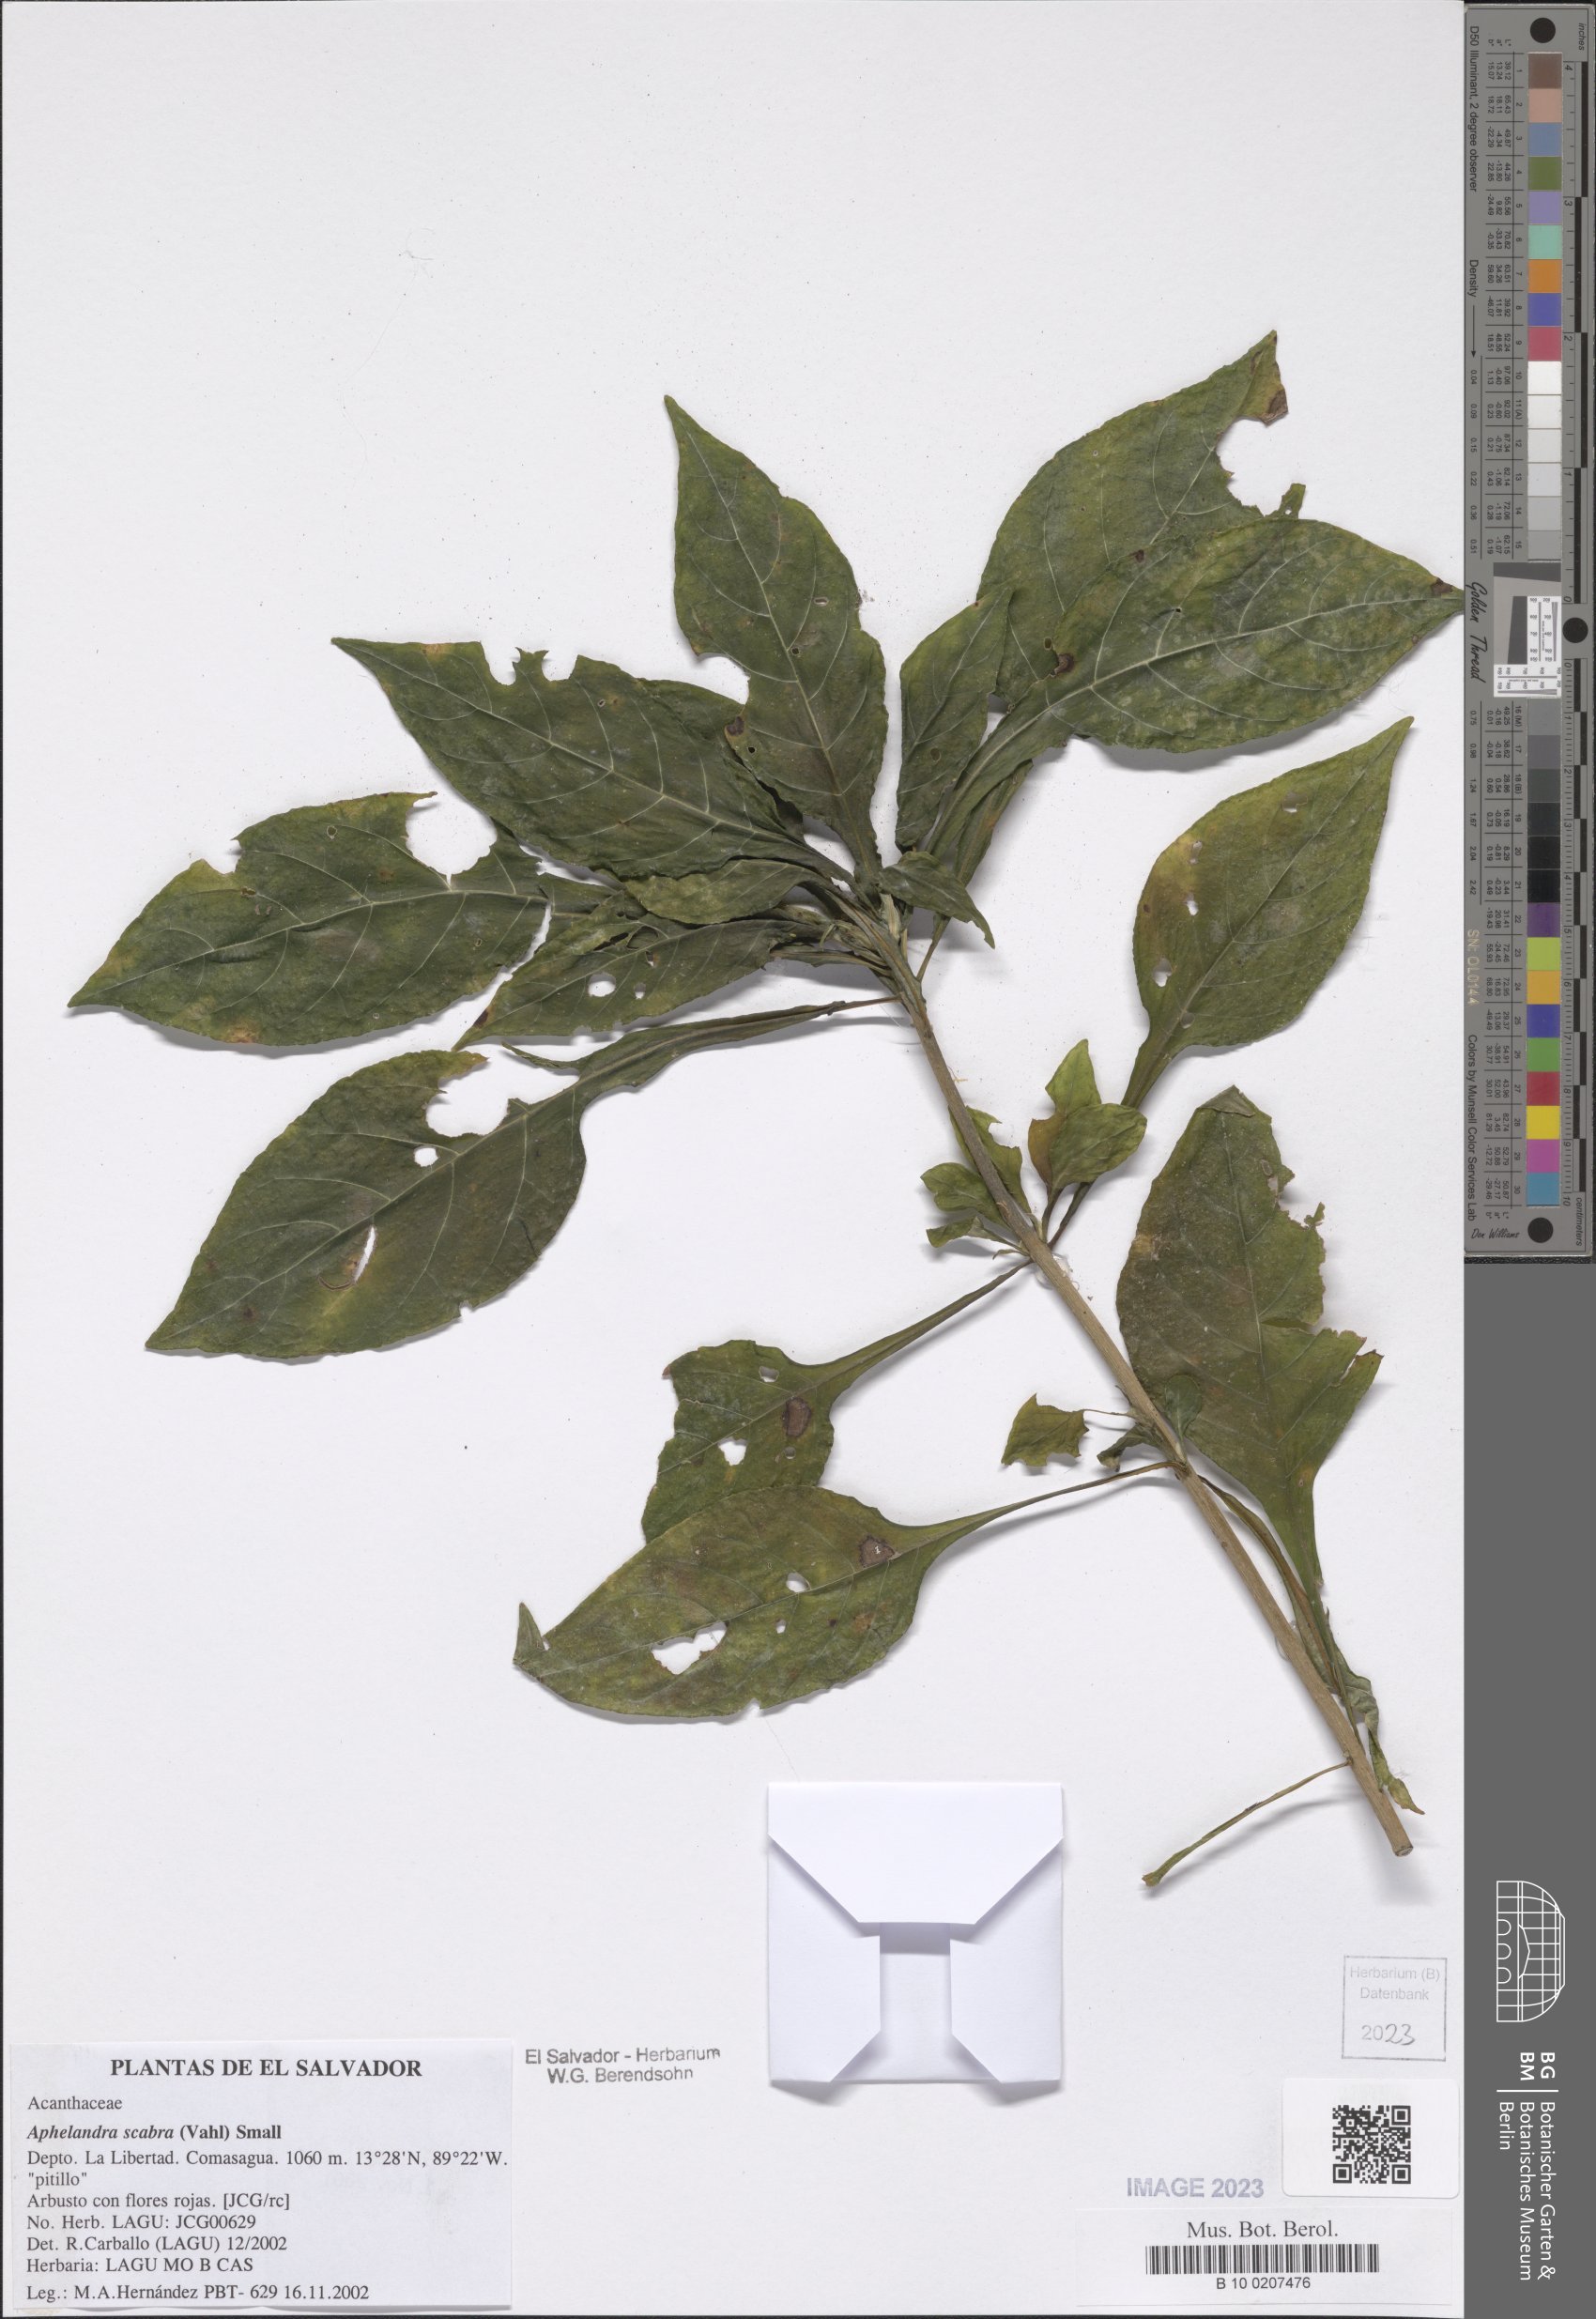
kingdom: Plantae
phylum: Tracheophyta
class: Magnoliopsida
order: Lamiales
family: Acanthaceae
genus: Aphelandra
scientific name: Aphelandra heydeana
